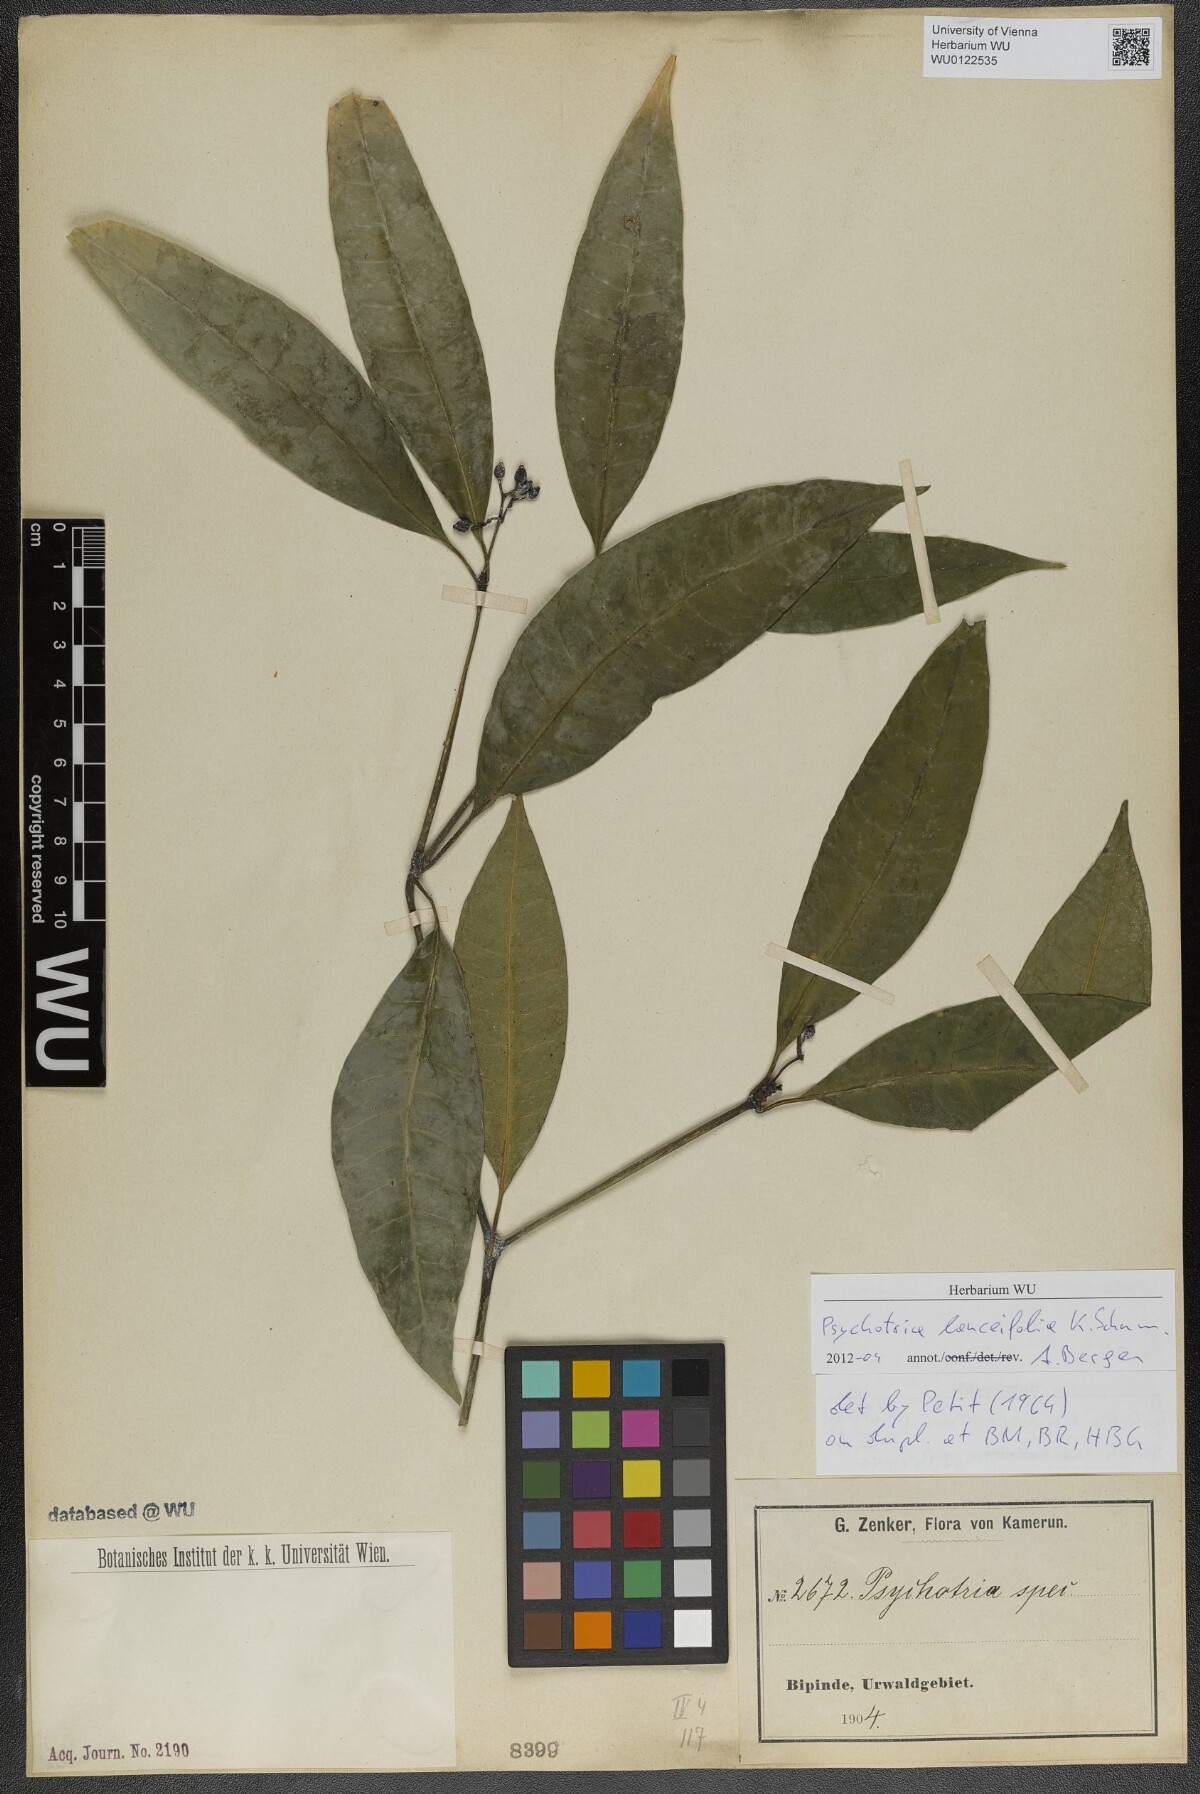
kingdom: Plantae
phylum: Tracheophyta
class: Magnoliopsida
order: Gentianales
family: Rubiaceae
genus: Psychotria
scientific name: Psychotria lanceifolia
